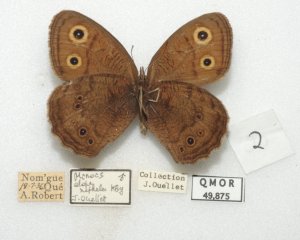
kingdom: Animalia
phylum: Arthropoda
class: Insecta
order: Lepidoptera
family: Nymphalidae
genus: Cercyonis
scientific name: Cercyonis pegala
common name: Common Wood-Nymph
